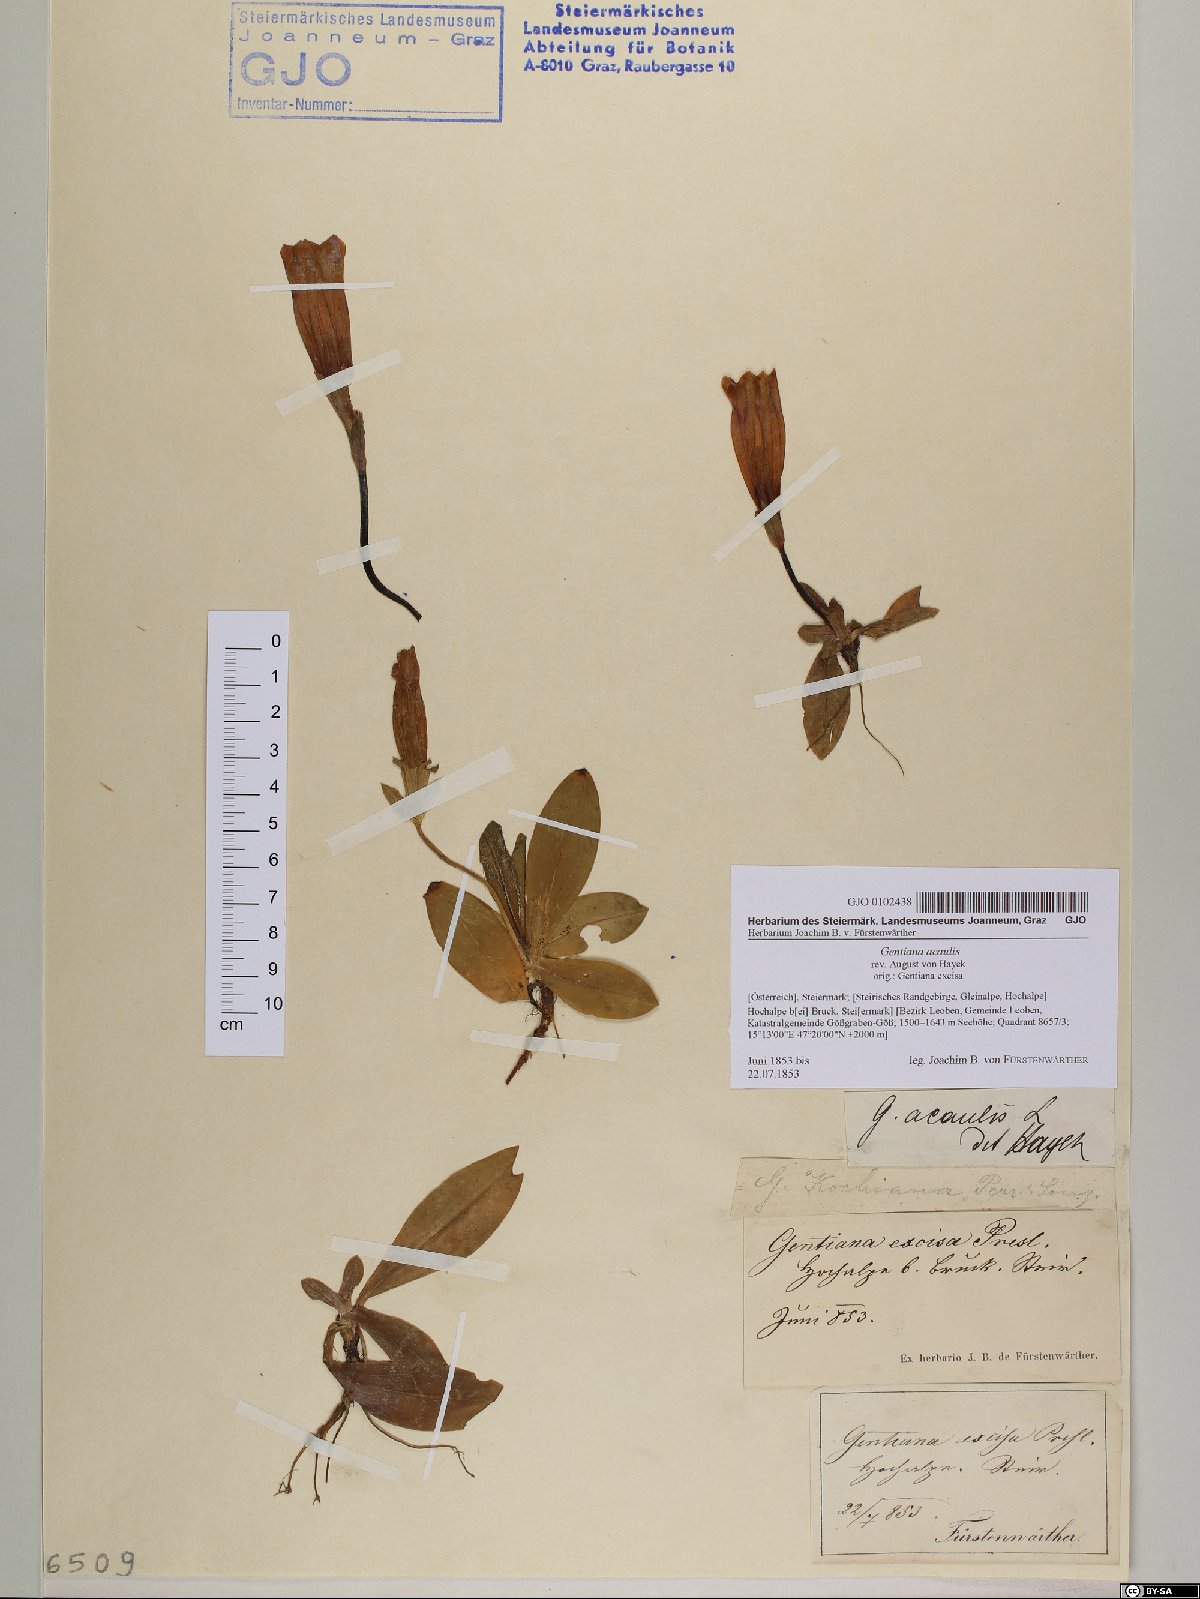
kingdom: Plantae
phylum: Tracheophyta
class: Magnoliopsida
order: Gentianales
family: Gentianaceae
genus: Gentiana
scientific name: Gentiana acaulis
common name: Trumpet gentian
